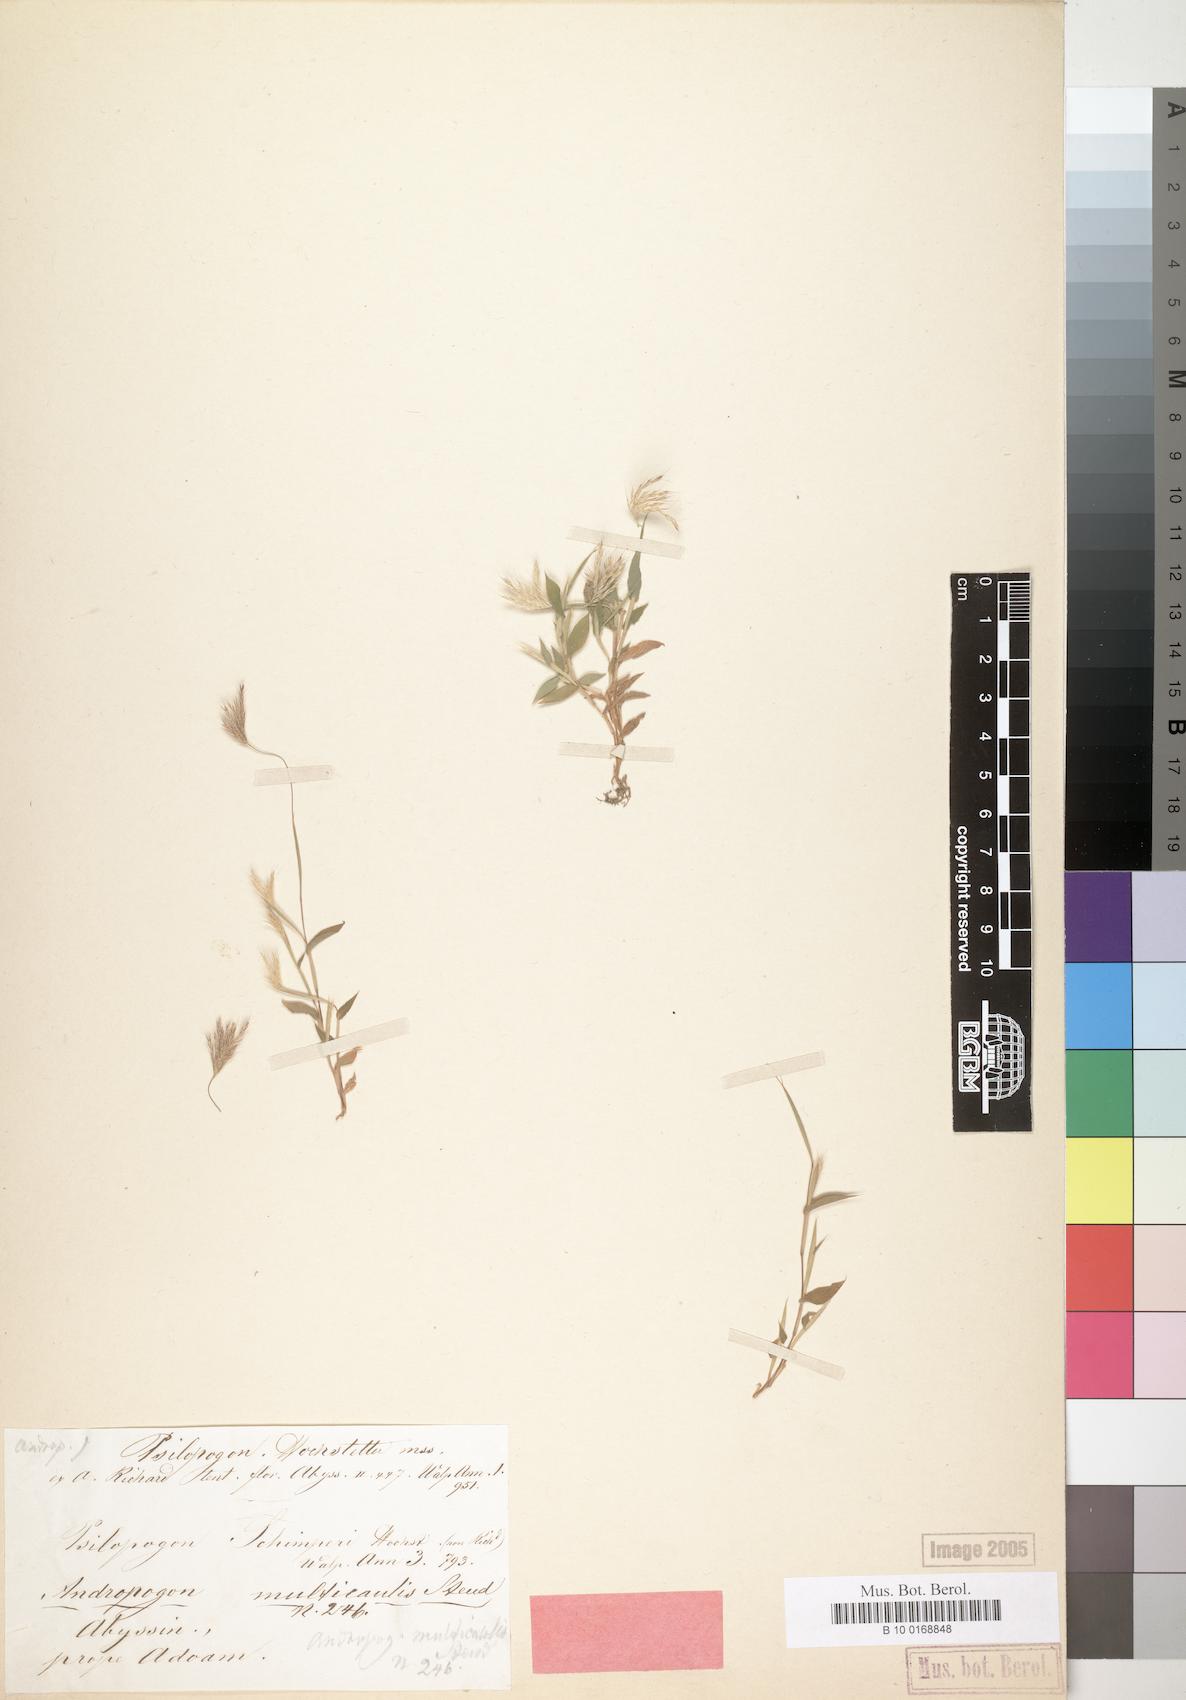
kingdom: Plantae
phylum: Tracheophyta
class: Liliopsida
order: Poales
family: Poaceae
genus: Arthraxon
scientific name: Arthraxon hispidus
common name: Small carpgrass
